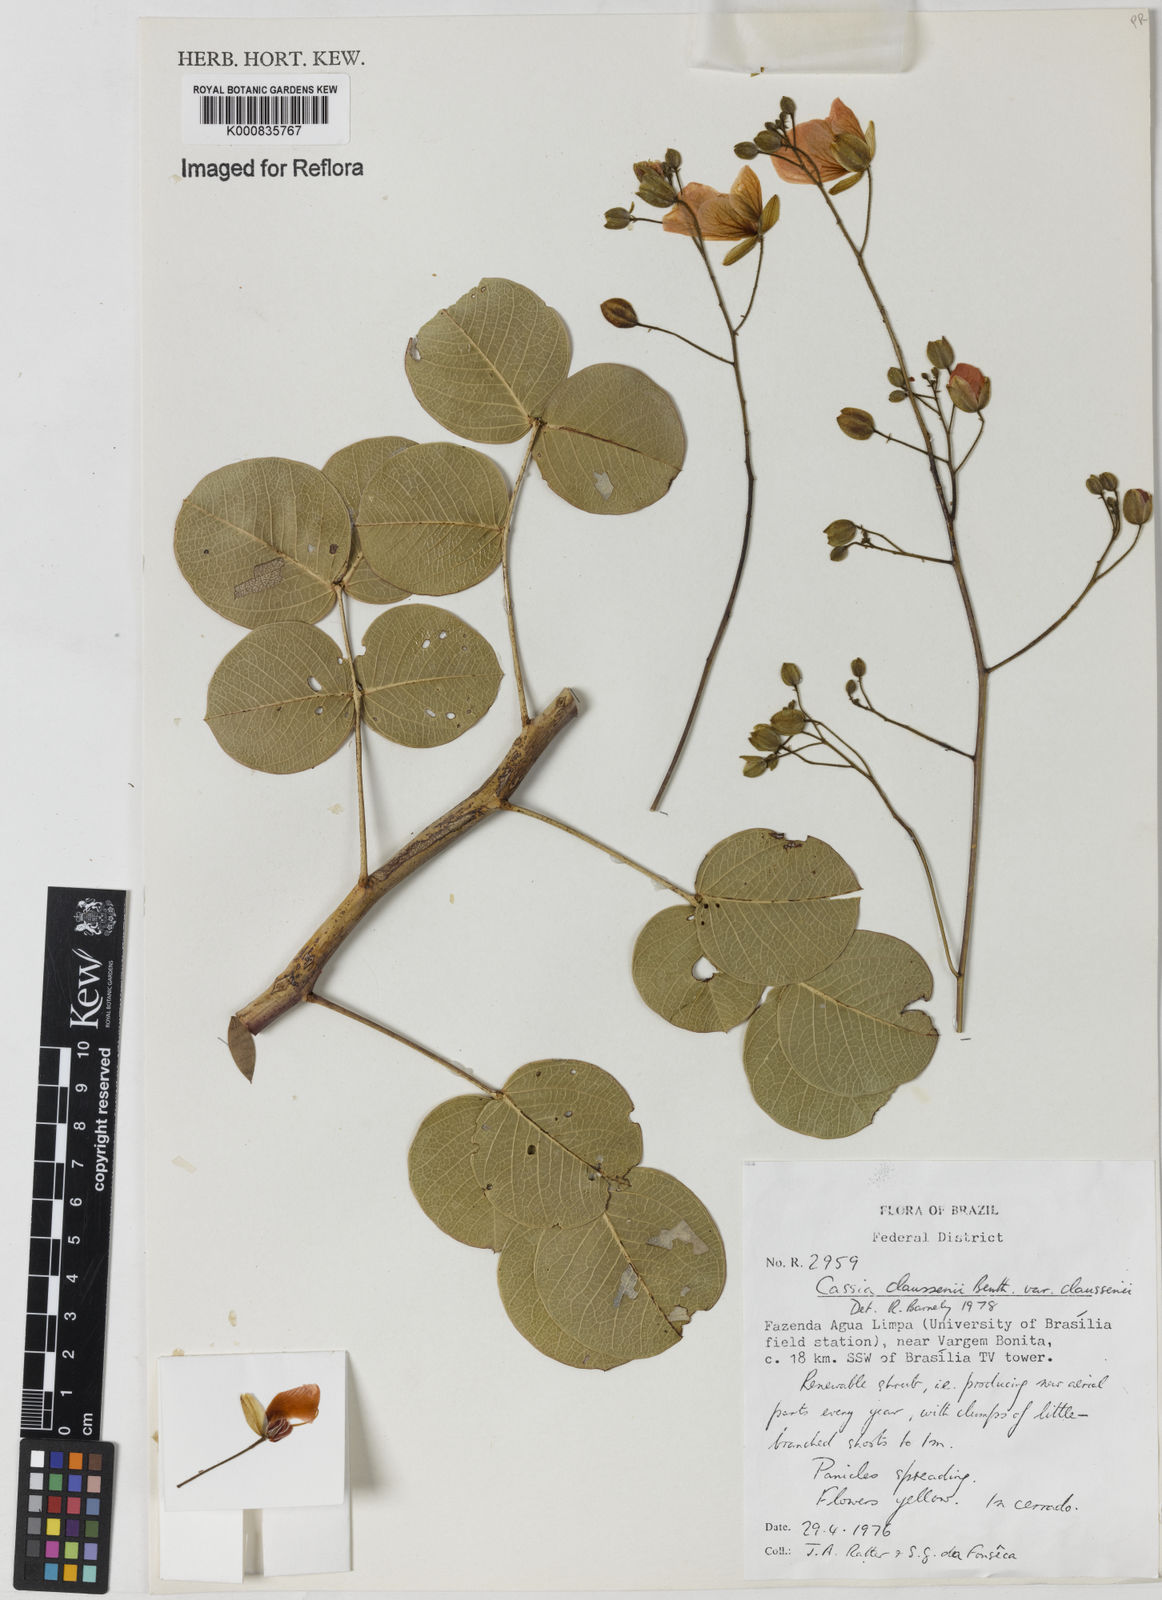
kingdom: Plantae
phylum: Tracheophyta
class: Magnoliopsida
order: Fabales
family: Fabaceae
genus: Chamaecrista
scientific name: Chamaecrista claussenii
